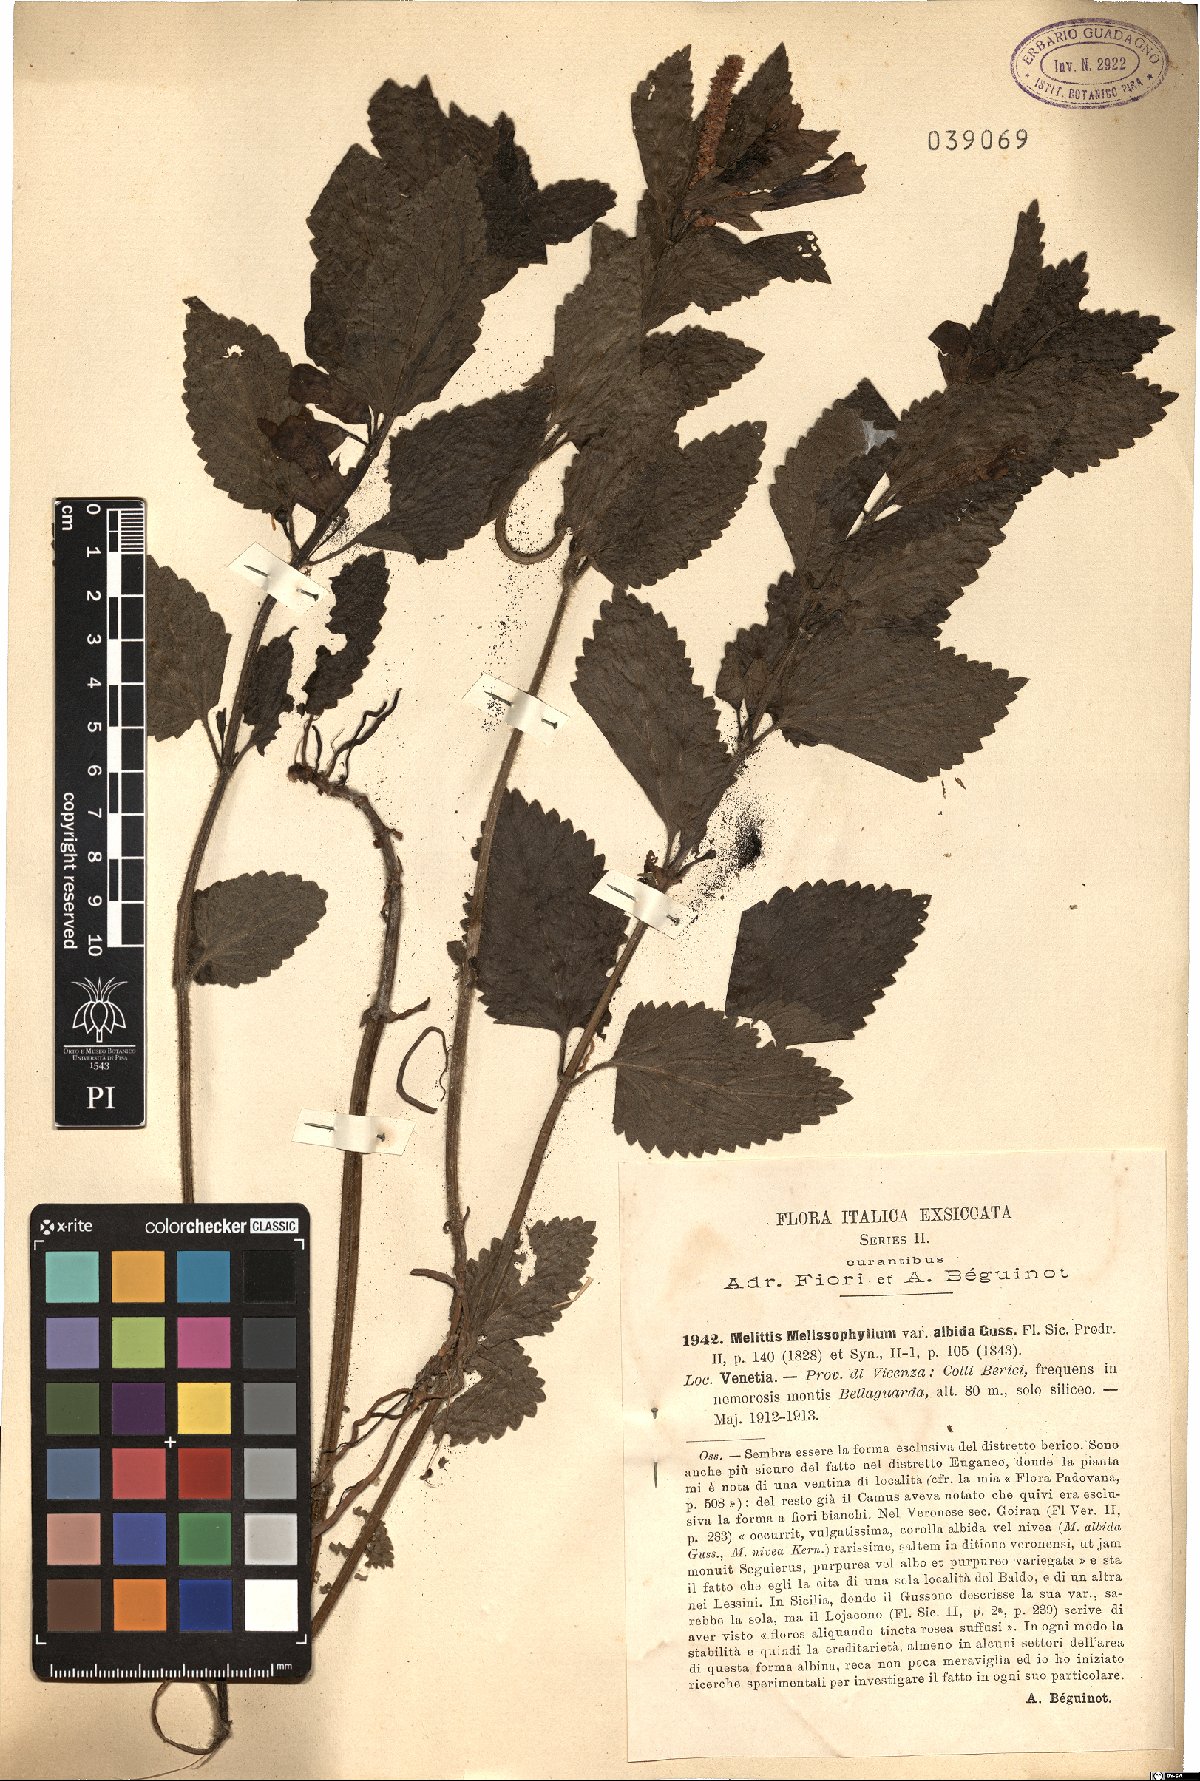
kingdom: Plantae
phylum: Tracheophyta
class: Magnoliopsida
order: Lamiales
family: Lamiaceae
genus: Melittis
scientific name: Melittis melissophyllum
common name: Bastard balm
